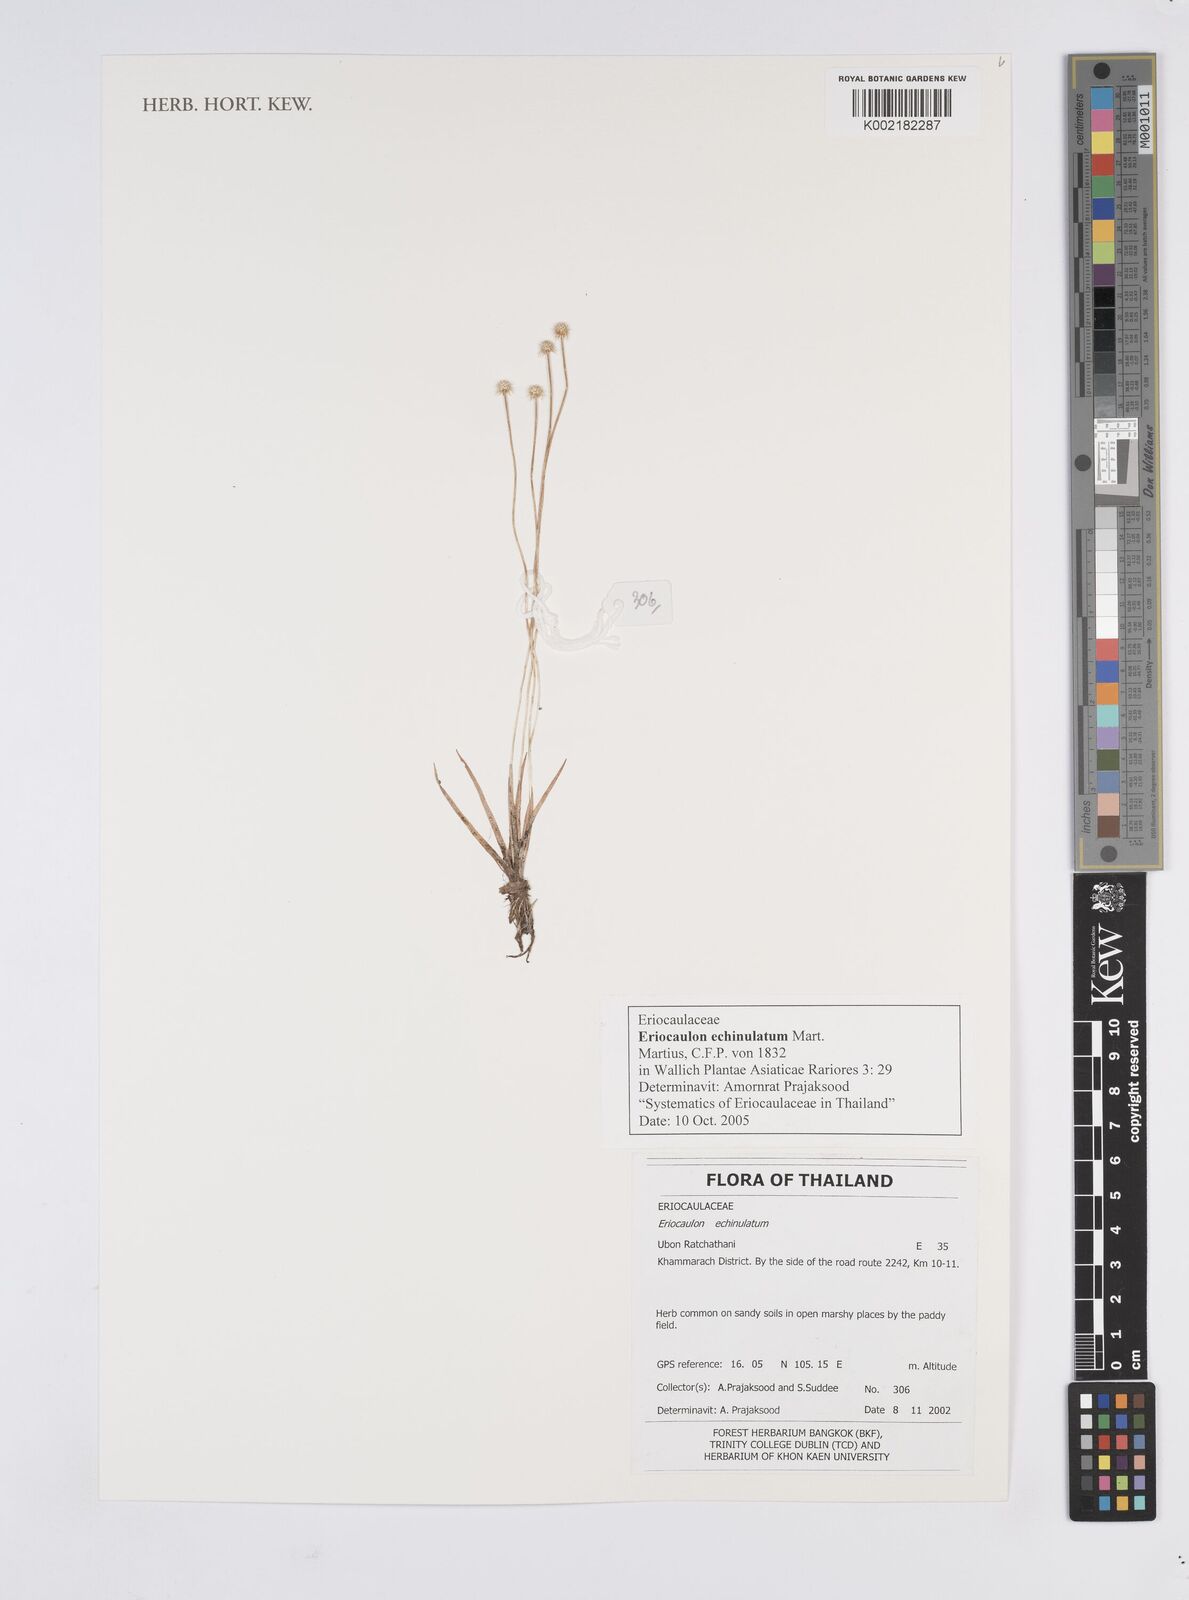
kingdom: Plantae
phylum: Tracheophyta
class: Liliopsida
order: Poales
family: Eriocaulaceae
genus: Eriocaulon
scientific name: Eriocaulon echinulatum
